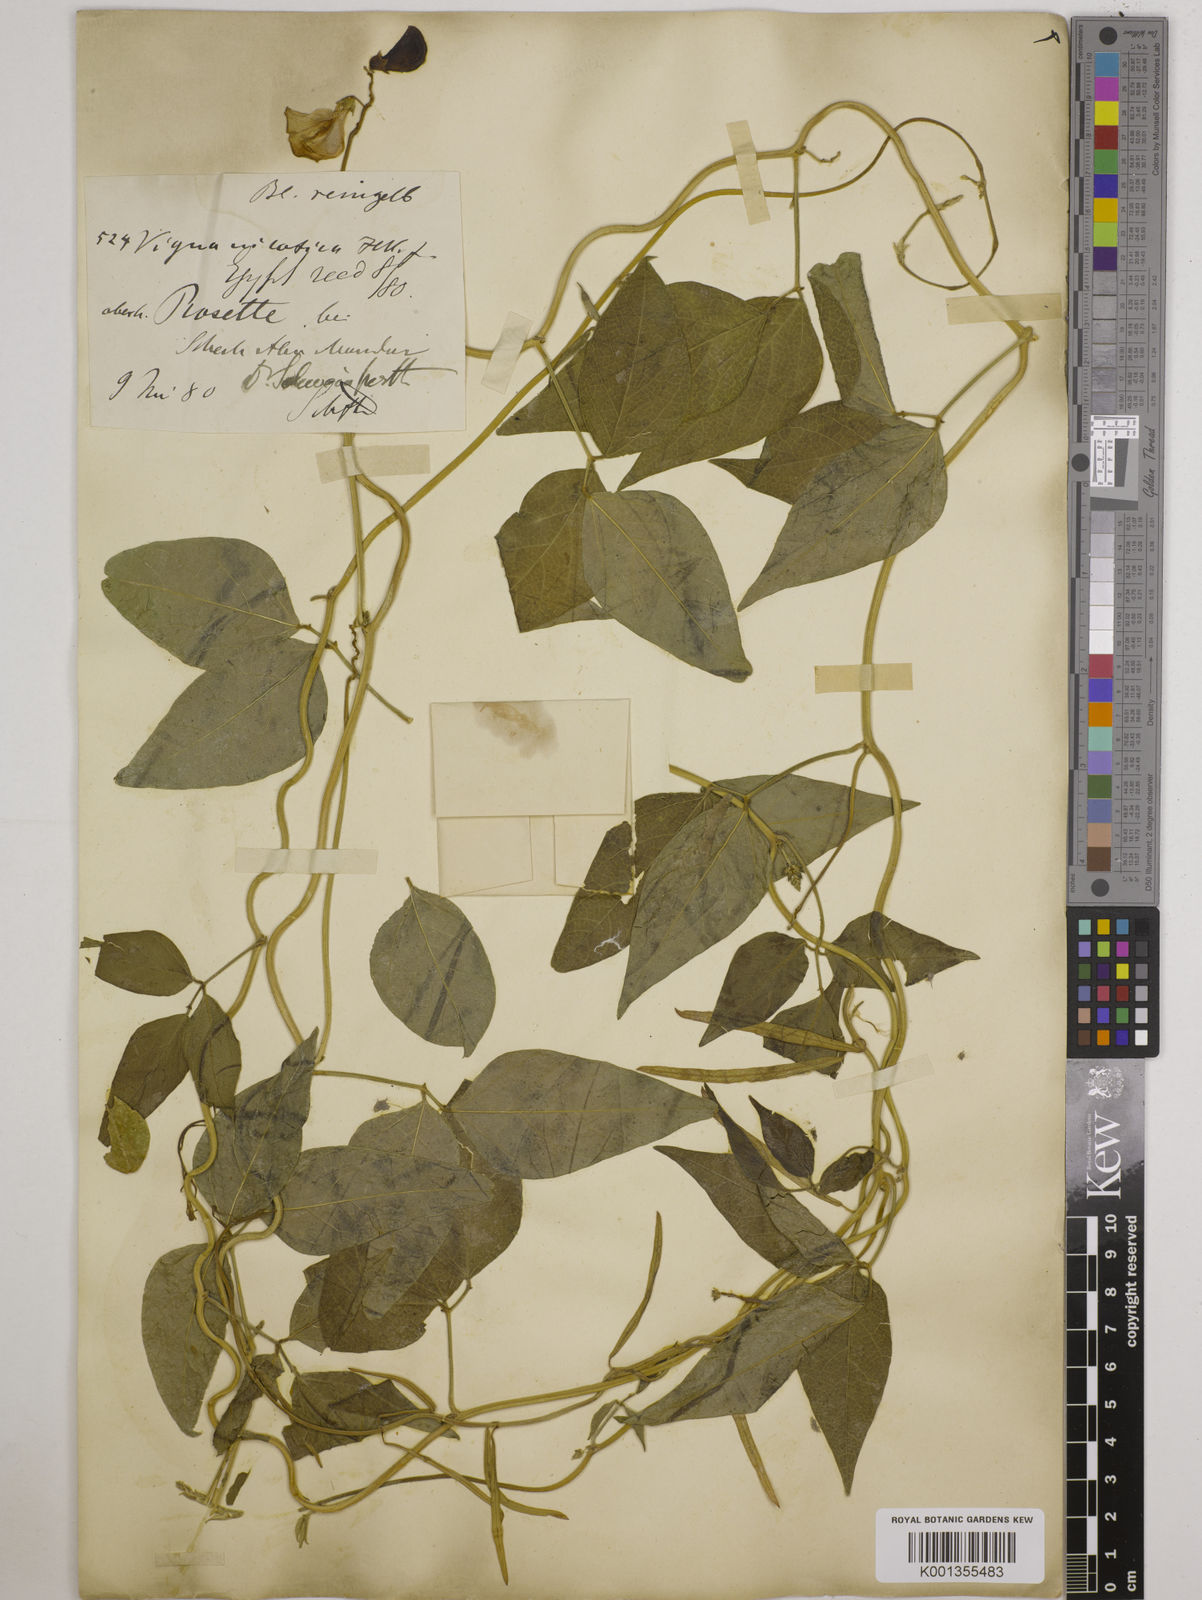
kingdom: Plantae
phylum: Tracheophyta
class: Magnoliopsida
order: Fabales
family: Fabaceae
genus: Vigna
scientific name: Vigna luteola
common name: Hairypod cowpea
